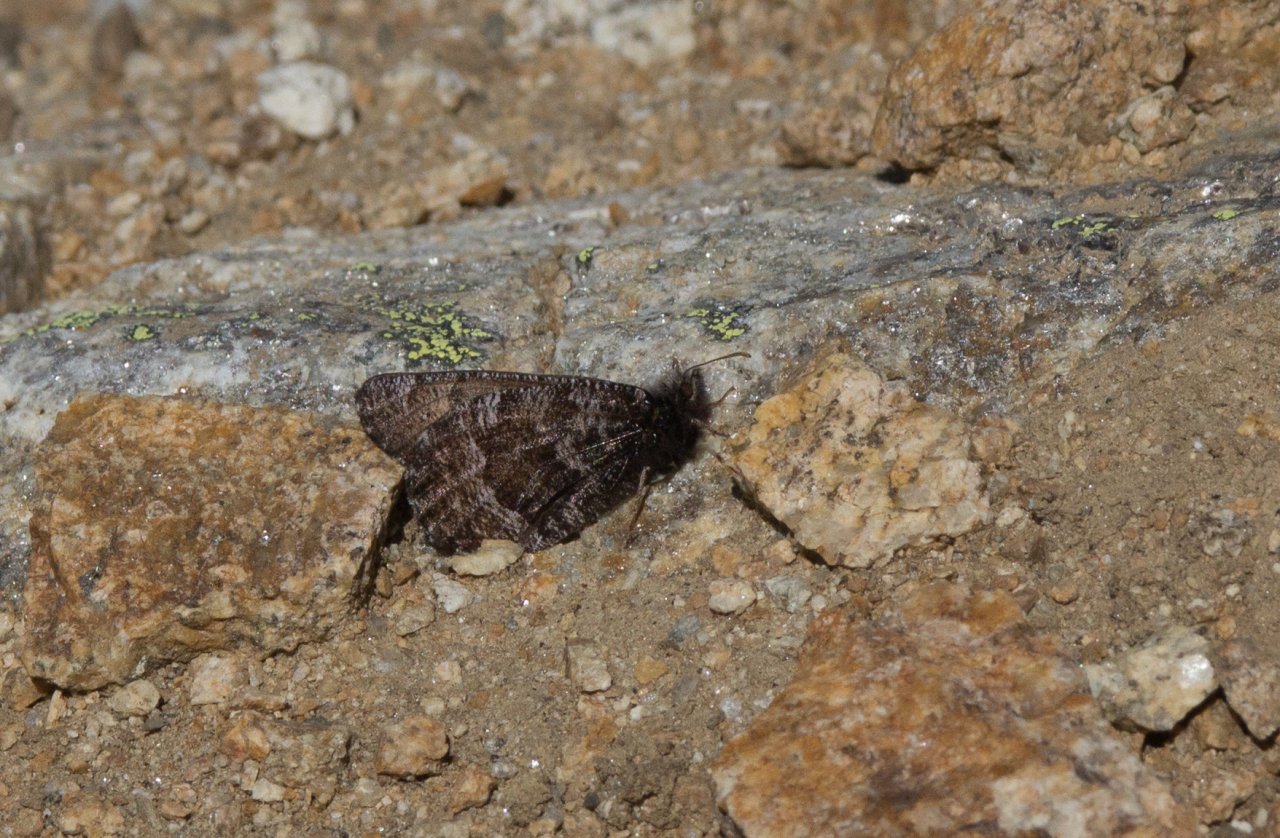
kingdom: Animalia
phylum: Arthropoda
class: Insecta
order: Lepidoptera
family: Nymphalidae
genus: Oeneis
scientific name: Oeneis melissa
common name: Melissa Arctic
